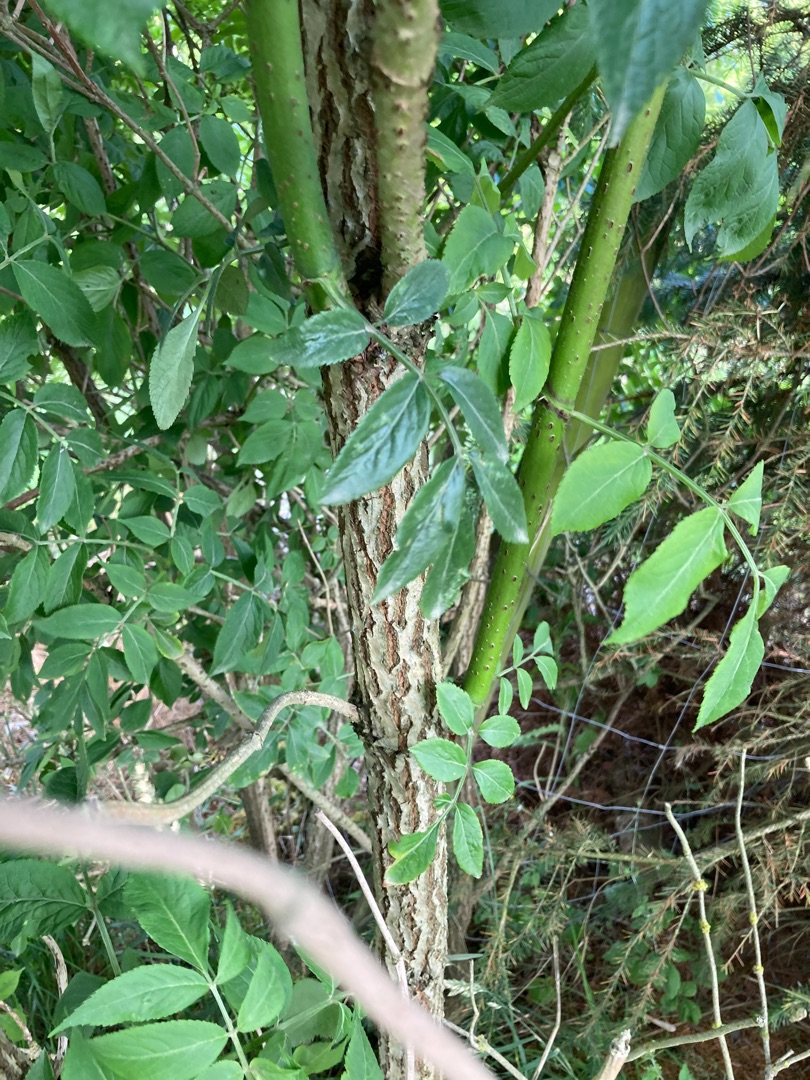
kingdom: Plantae
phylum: Tracheophyta
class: Magnoliopsida
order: Dipsacales
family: Viburnaceae
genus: Sambucus
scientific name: Sambucus nigra
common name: Almindelig hyld
